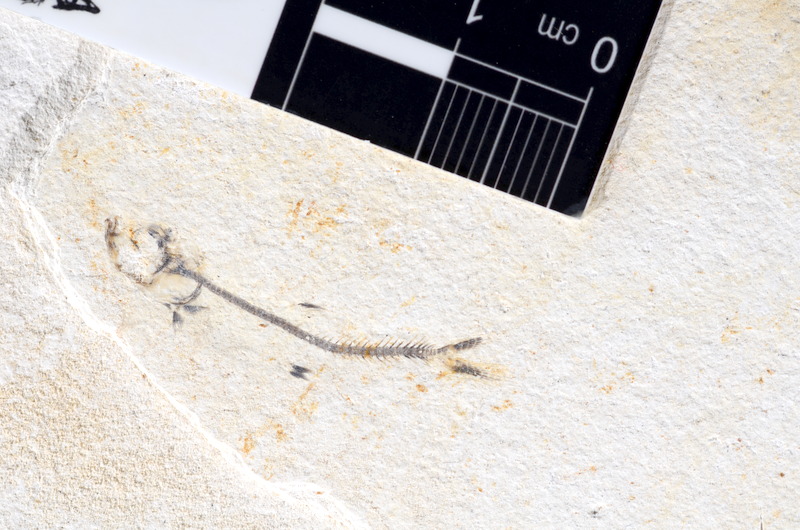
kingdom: Animalia
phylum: Chordata
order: Salmoniformes
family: Orthogonikleithridae
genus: Orthogonikleithrus
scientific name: Orthogonikleithrus hoelli
